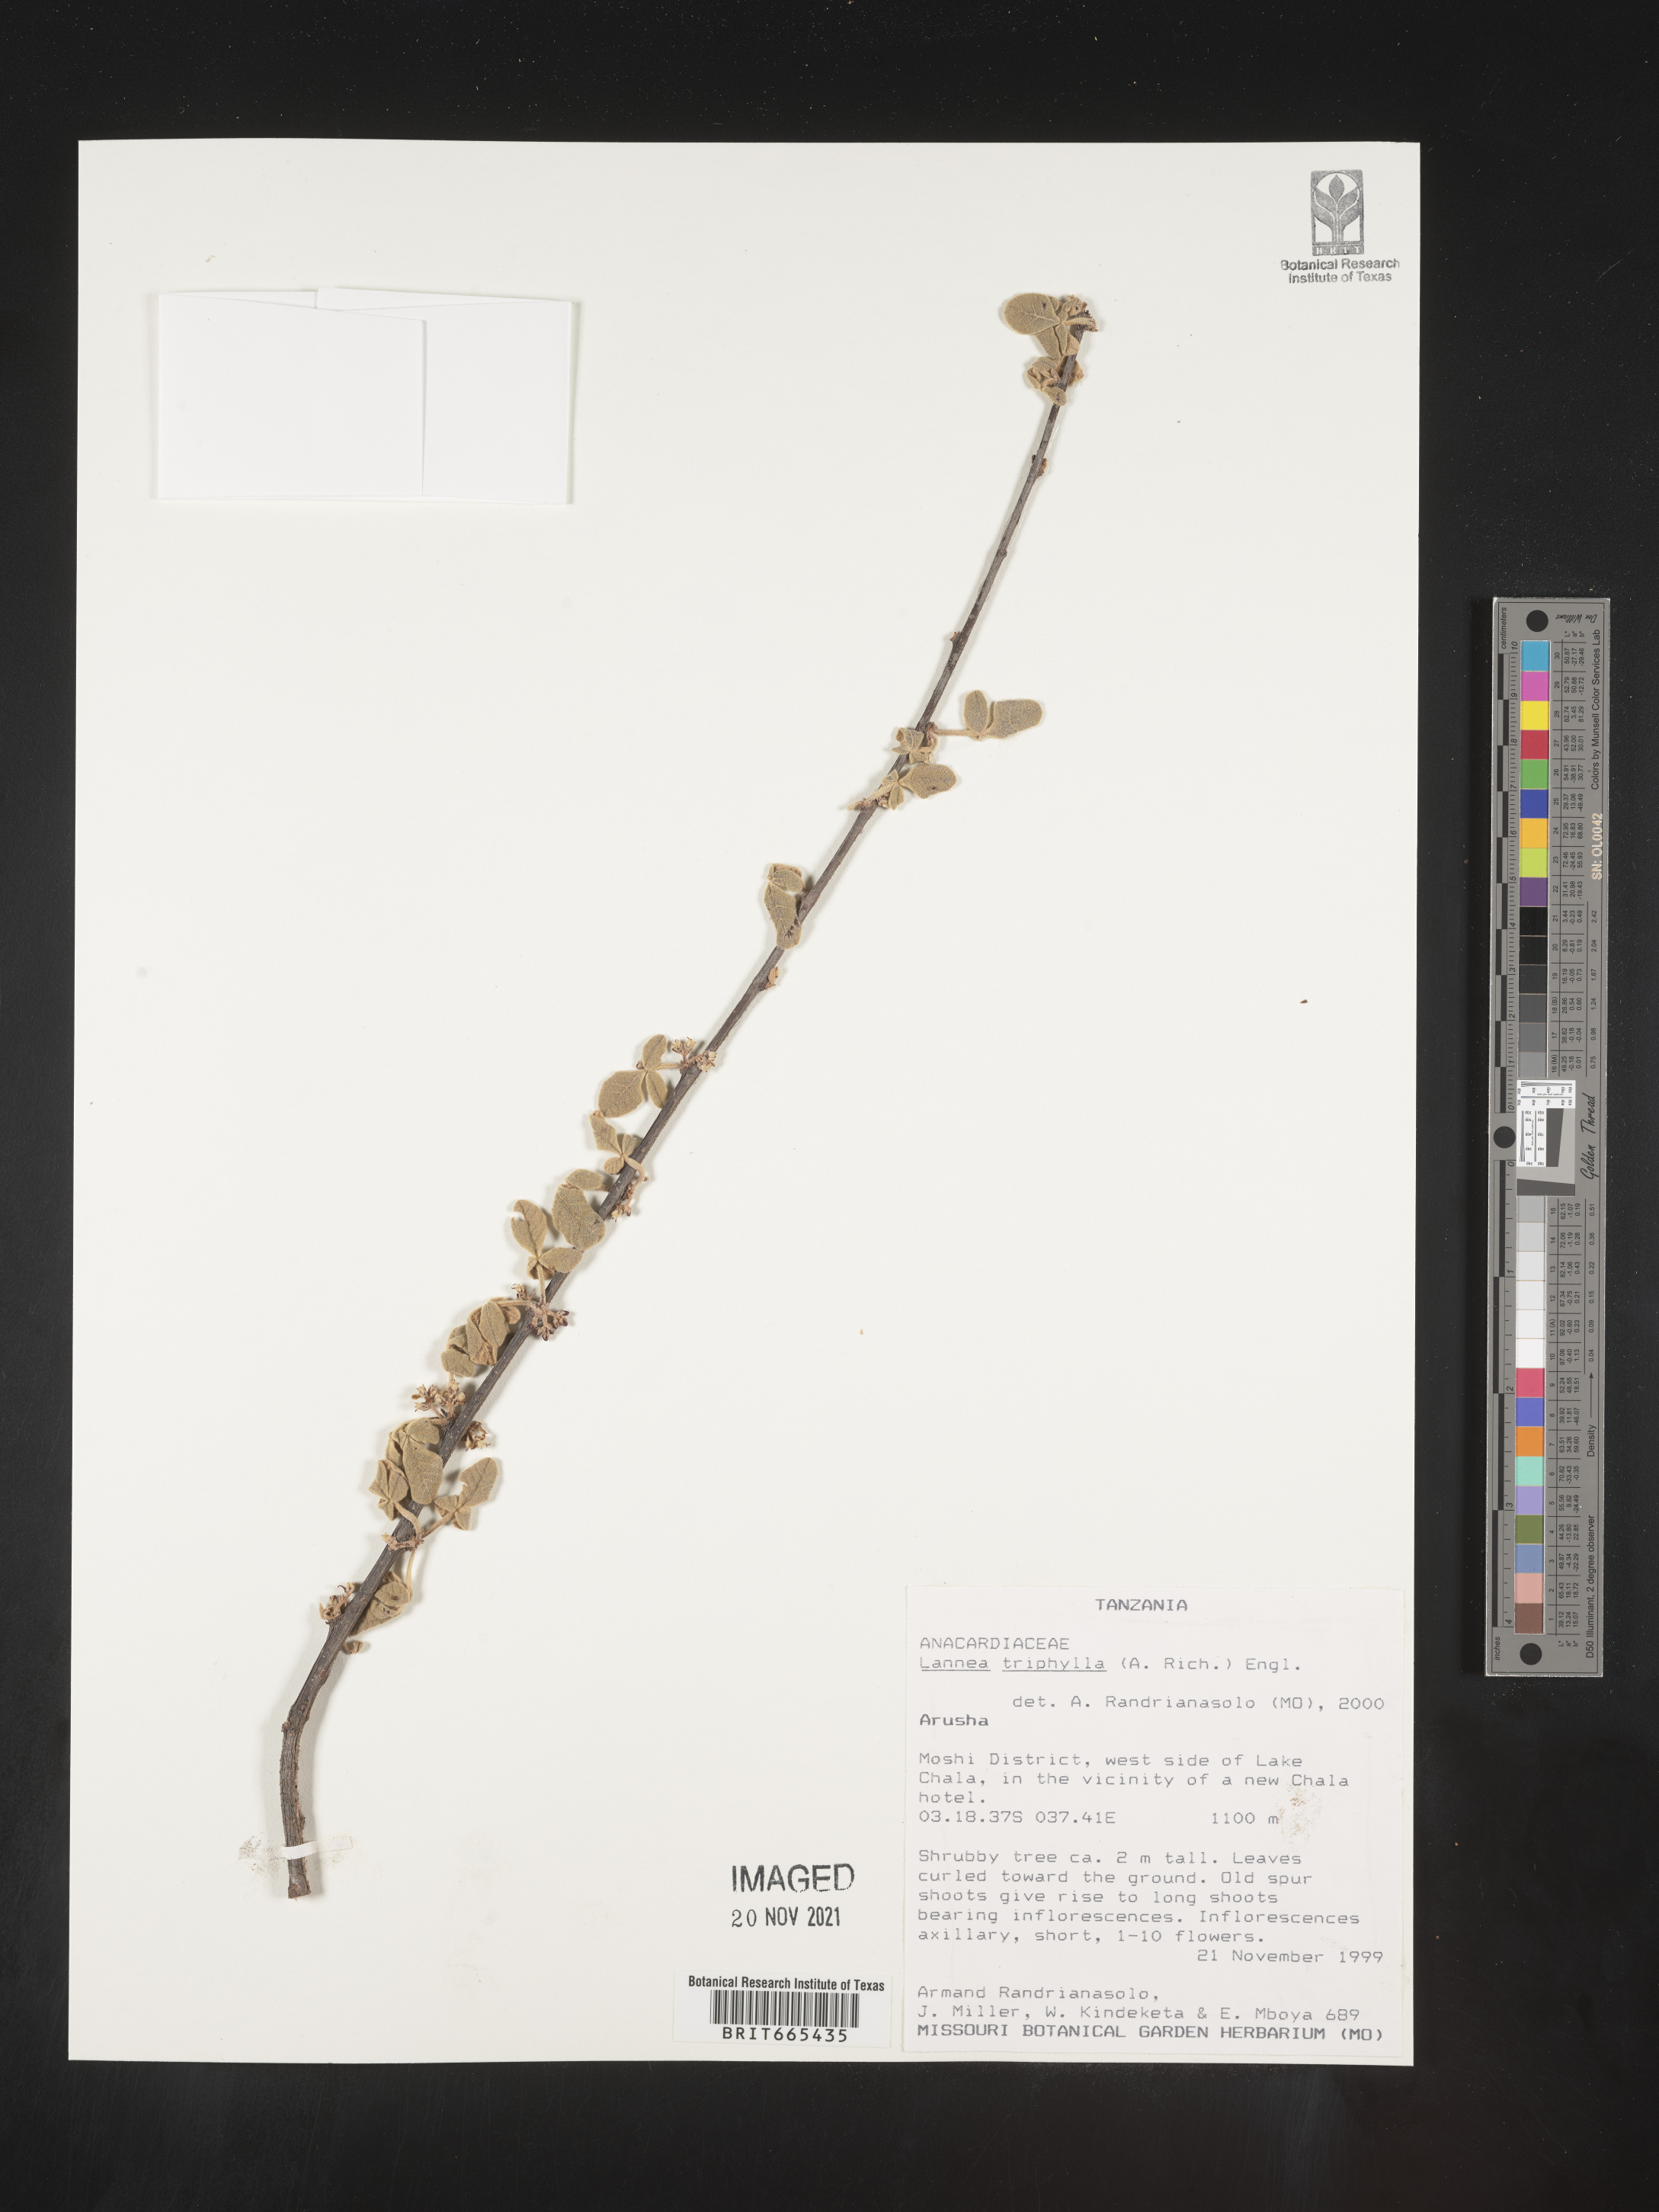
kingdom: Plantae
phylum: Tracheophyta
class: Magnoliopsida
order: Sapindales
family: Anacardiaceae
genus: Lannea
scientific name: Lannea
